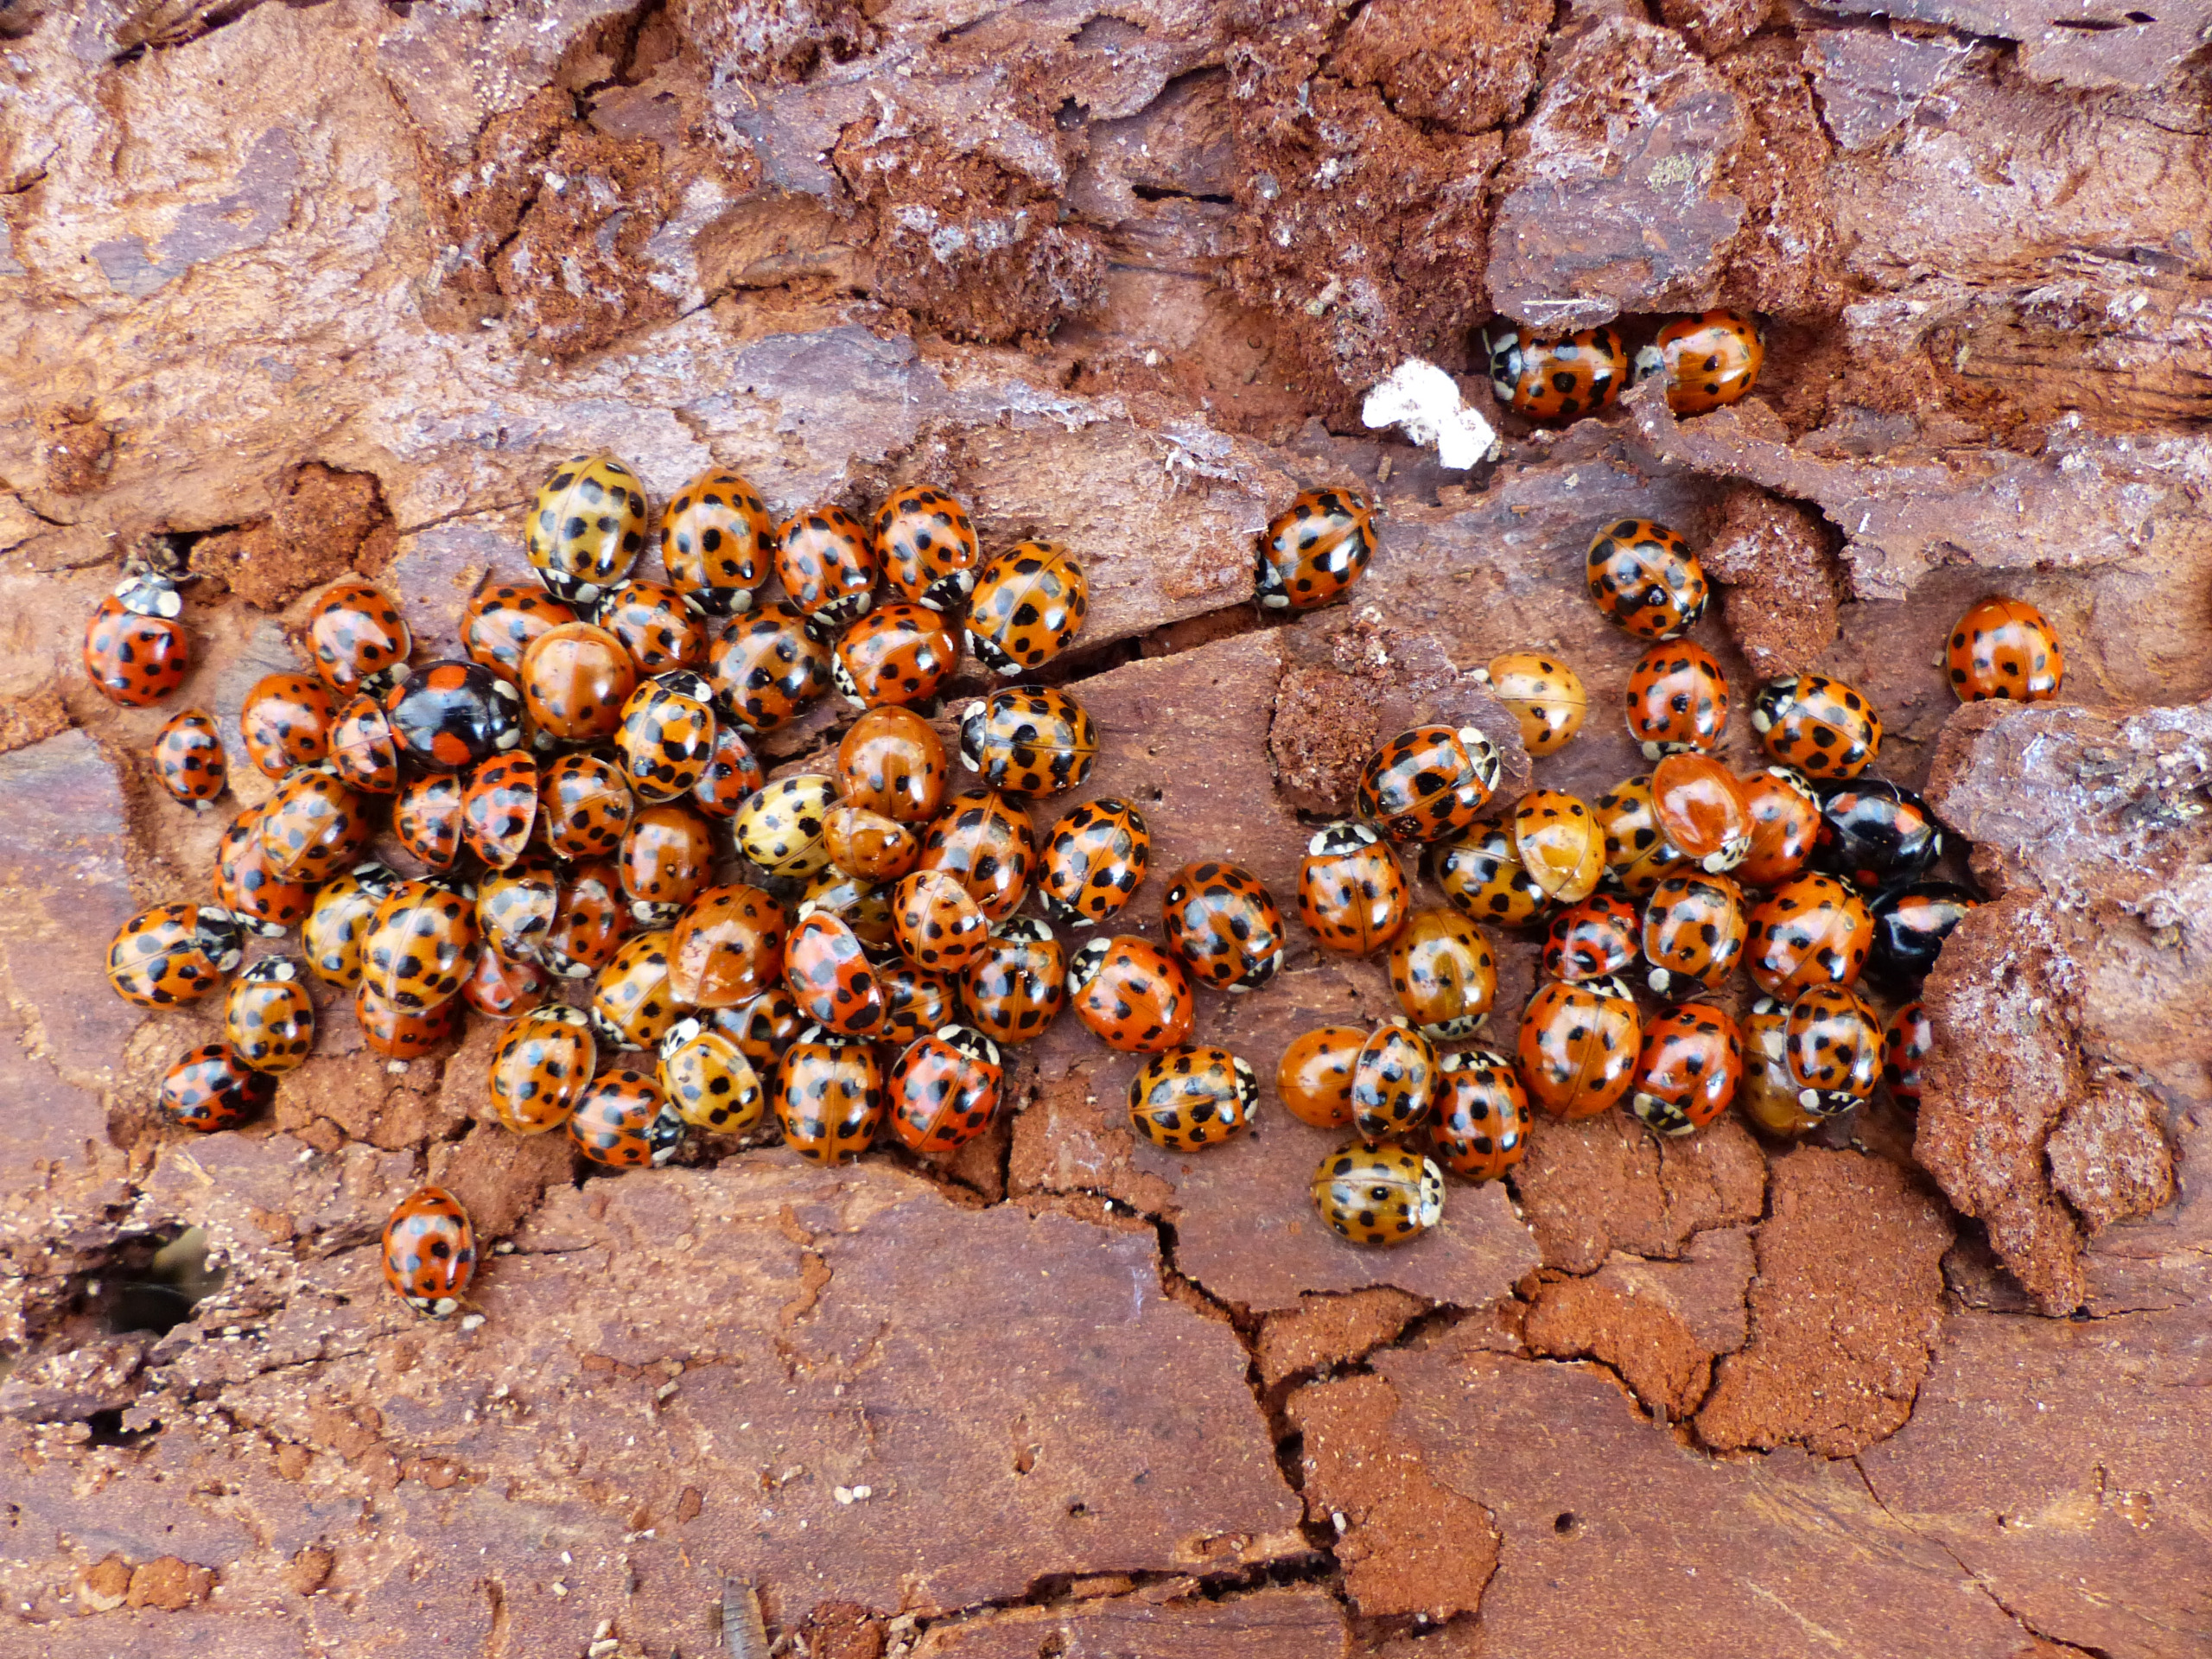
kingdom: Animalia
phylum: Arthropoda
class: Insecta
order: Coleoptera
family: Coccinellidae
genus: Harmonia
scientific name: Harmonia axyridis
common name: Harlekinmariehøne
